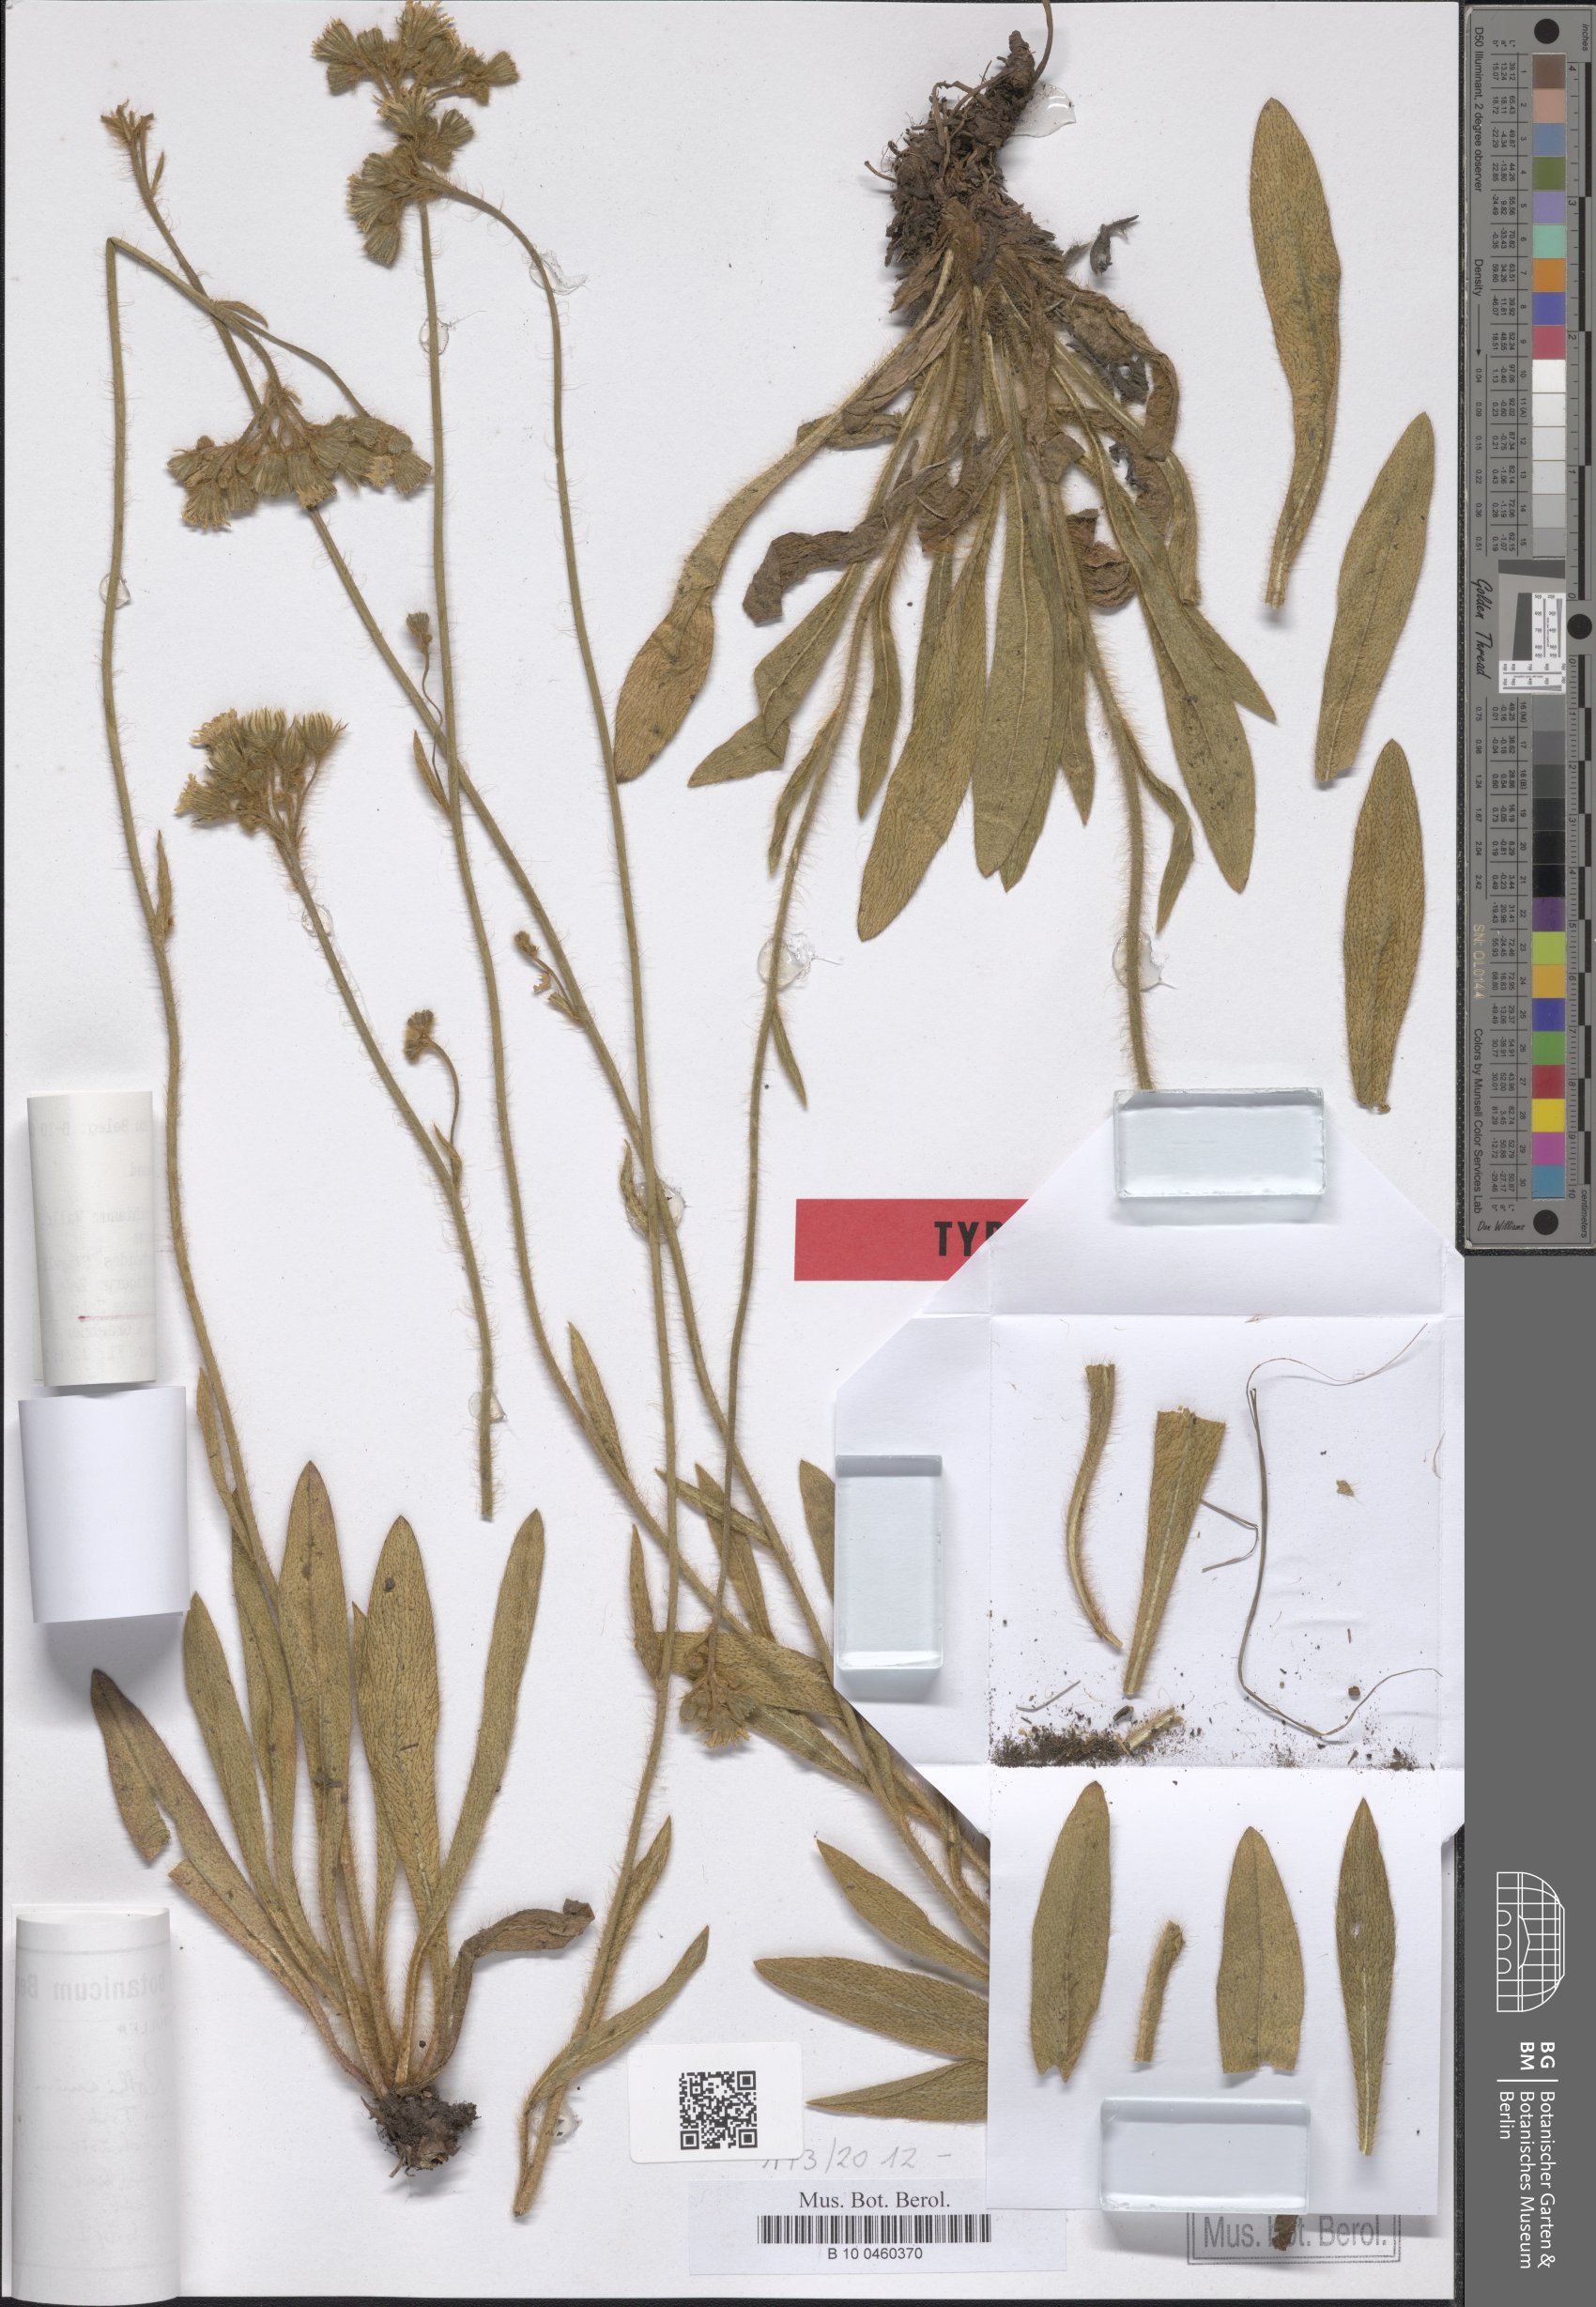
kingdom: Plantae
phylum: Tracheophyta
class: Magnoliopsida
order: Asterales
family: Asteraceae
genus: Hieracium
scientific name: Hieracium rothianum
